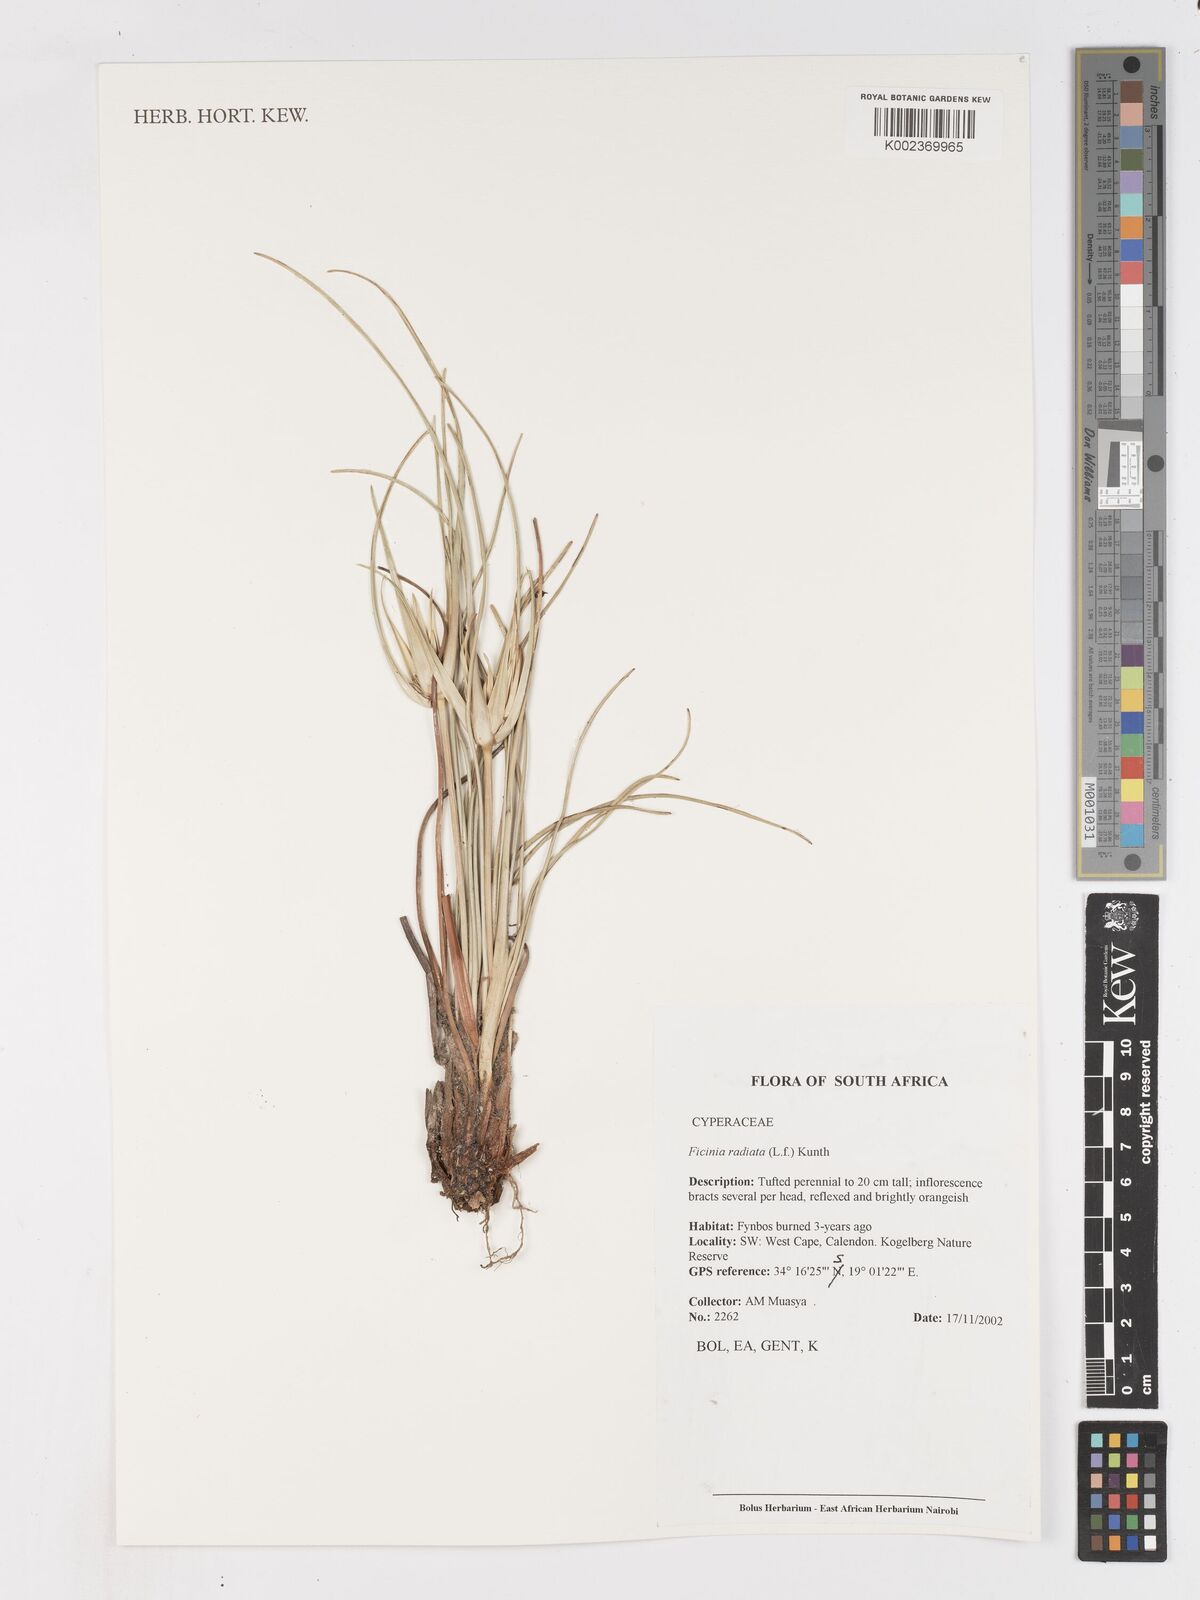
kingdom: Plantae
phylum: Tracheophyta
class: Liliopsida
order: Poales
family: Cyperaceae
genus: Ficinia
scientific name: Ficinia radiata
